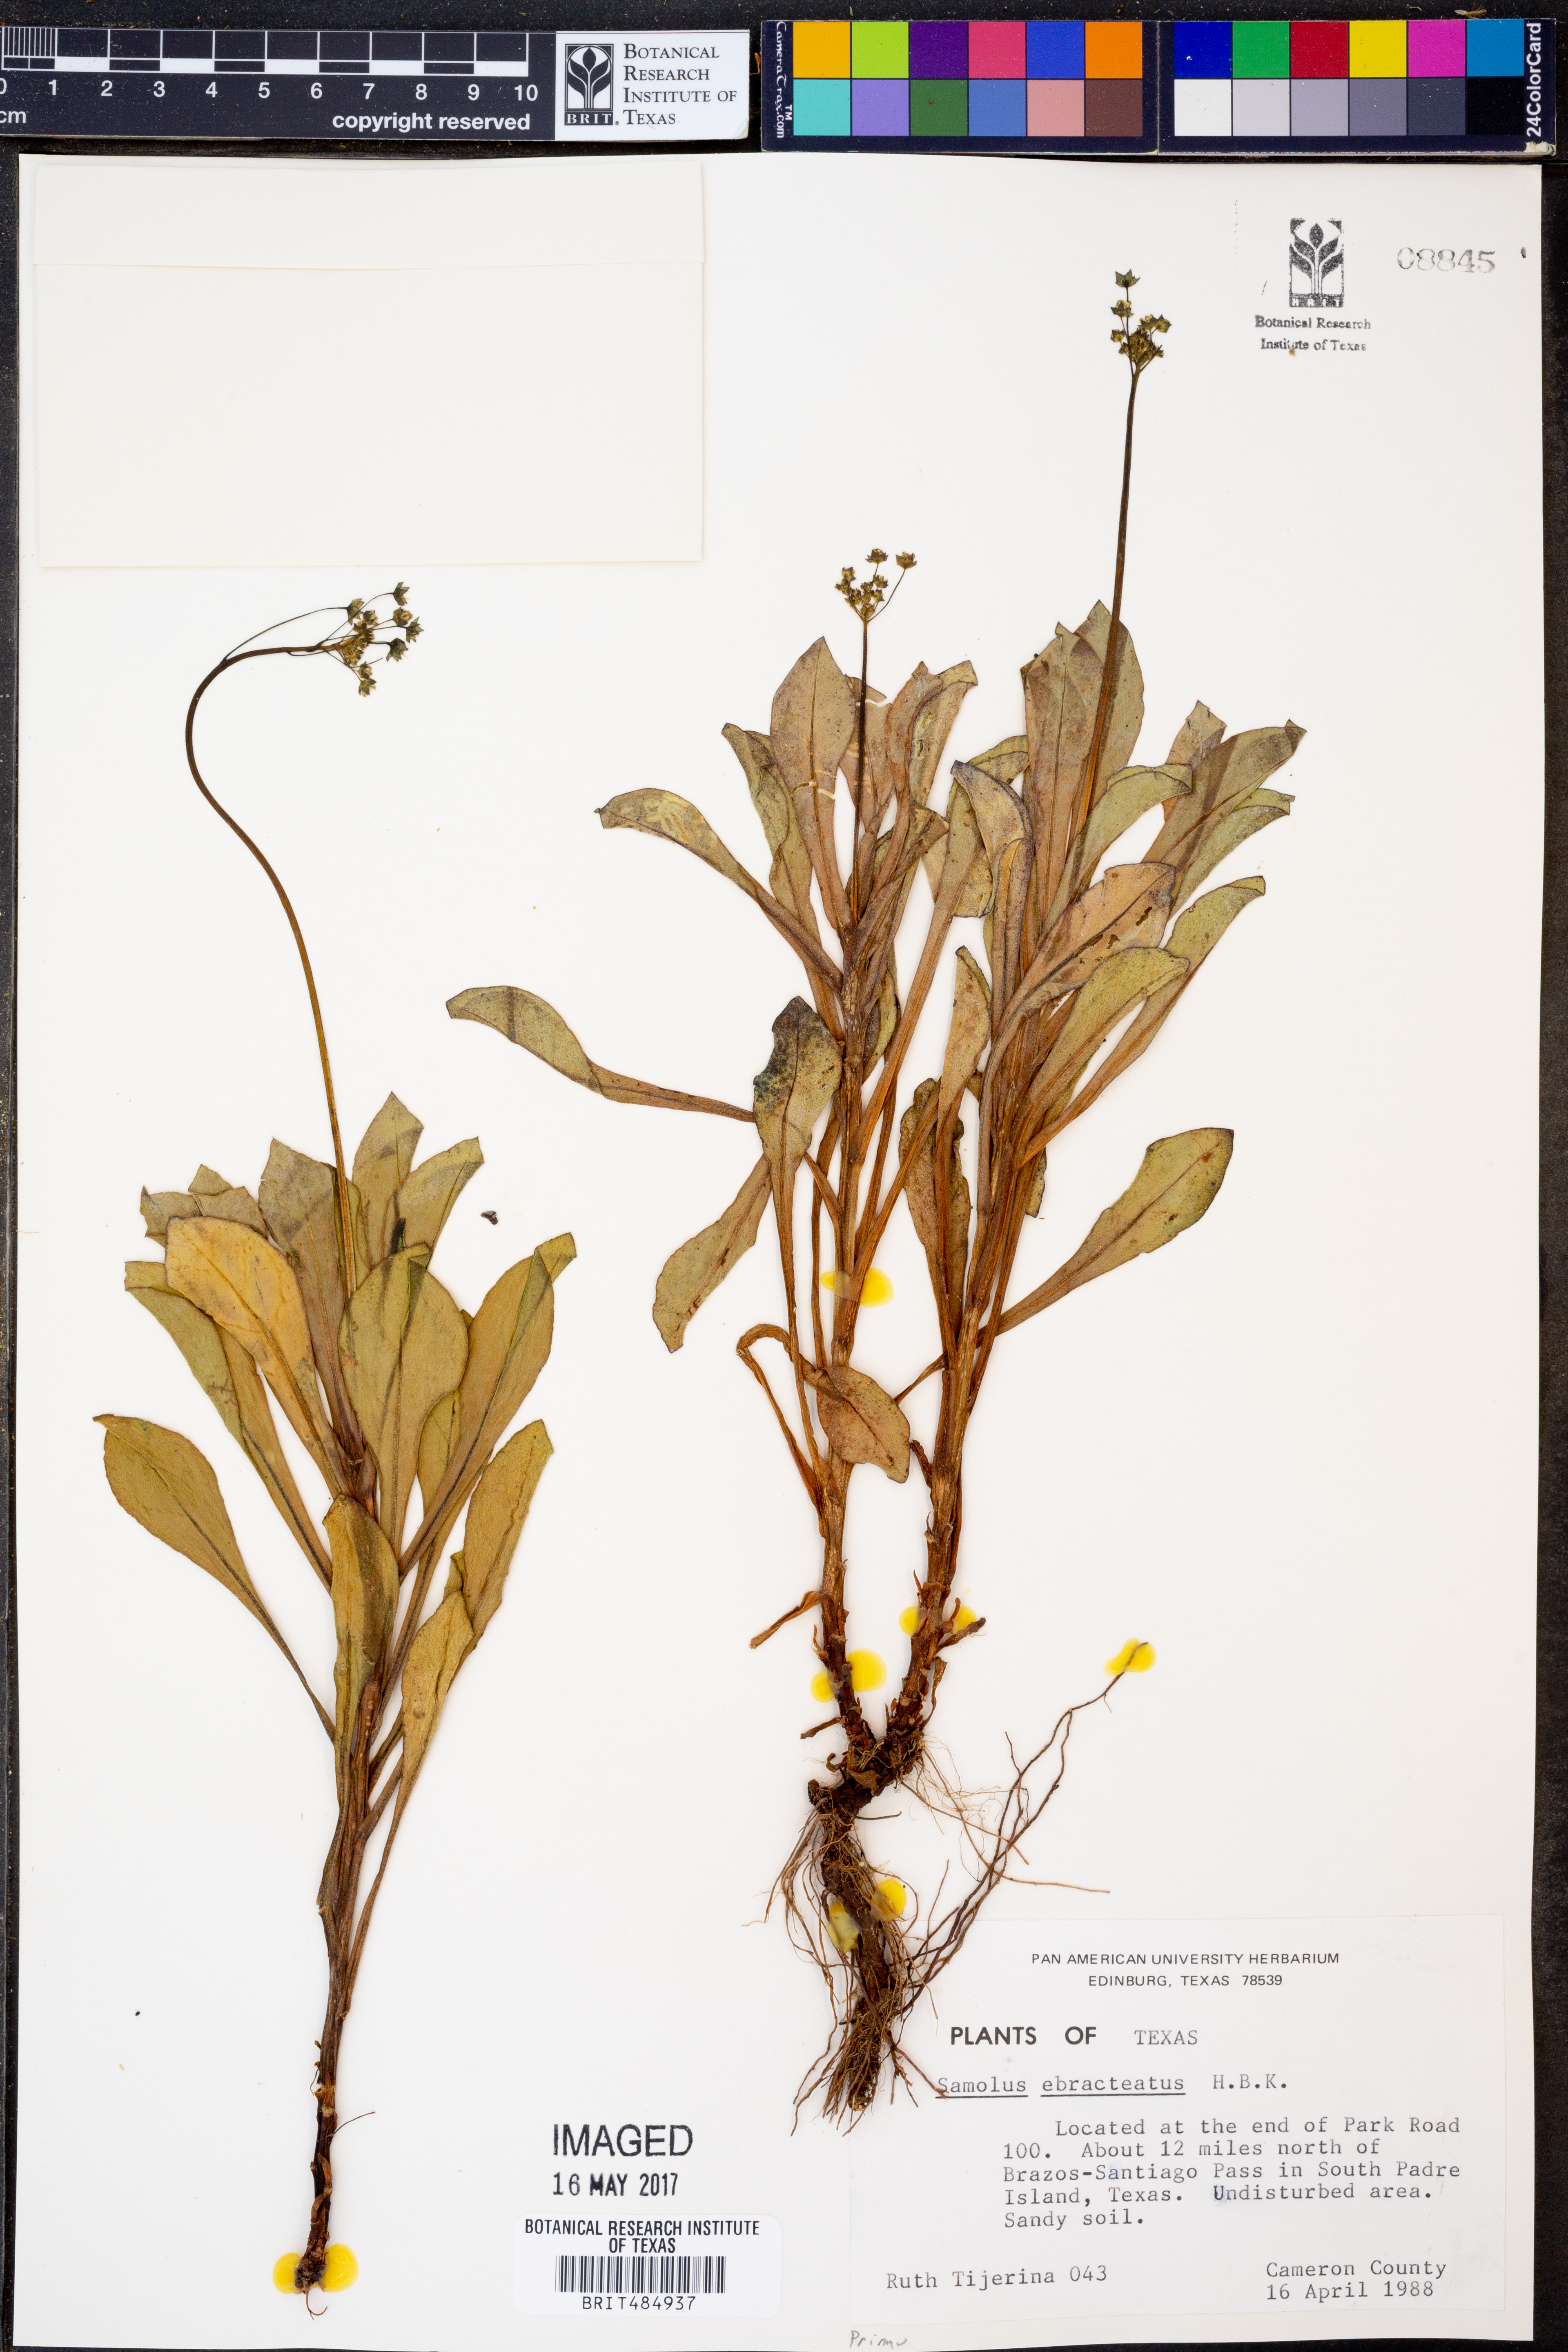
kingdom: Plantae
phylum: Tracheophyta
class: Magnoliopsida
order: Ericales
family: Primulaceae
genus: Samolus
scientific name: Samolus ebracteatus
